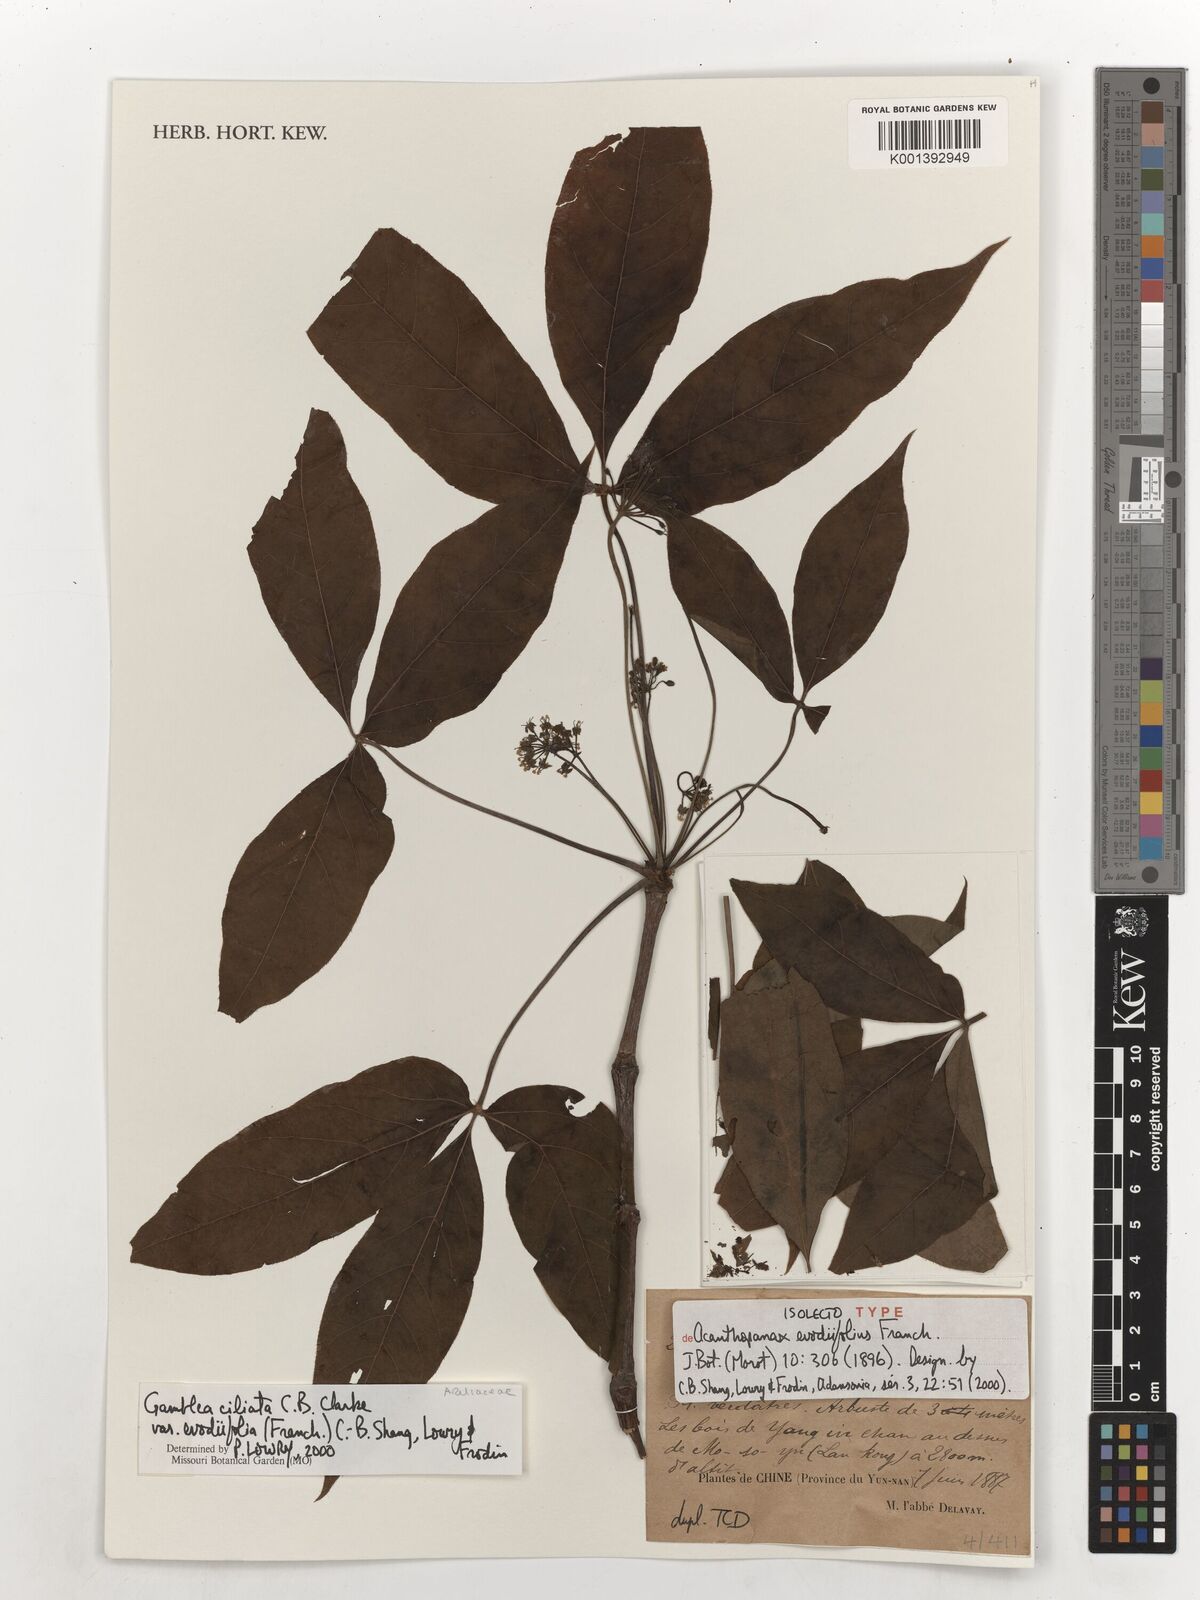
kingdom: Plantae
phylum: Tracheophyta
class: Magnoliopsida
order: Apiales
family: Araliaceae
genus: Gamblea
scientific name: Gamblea ciliata
